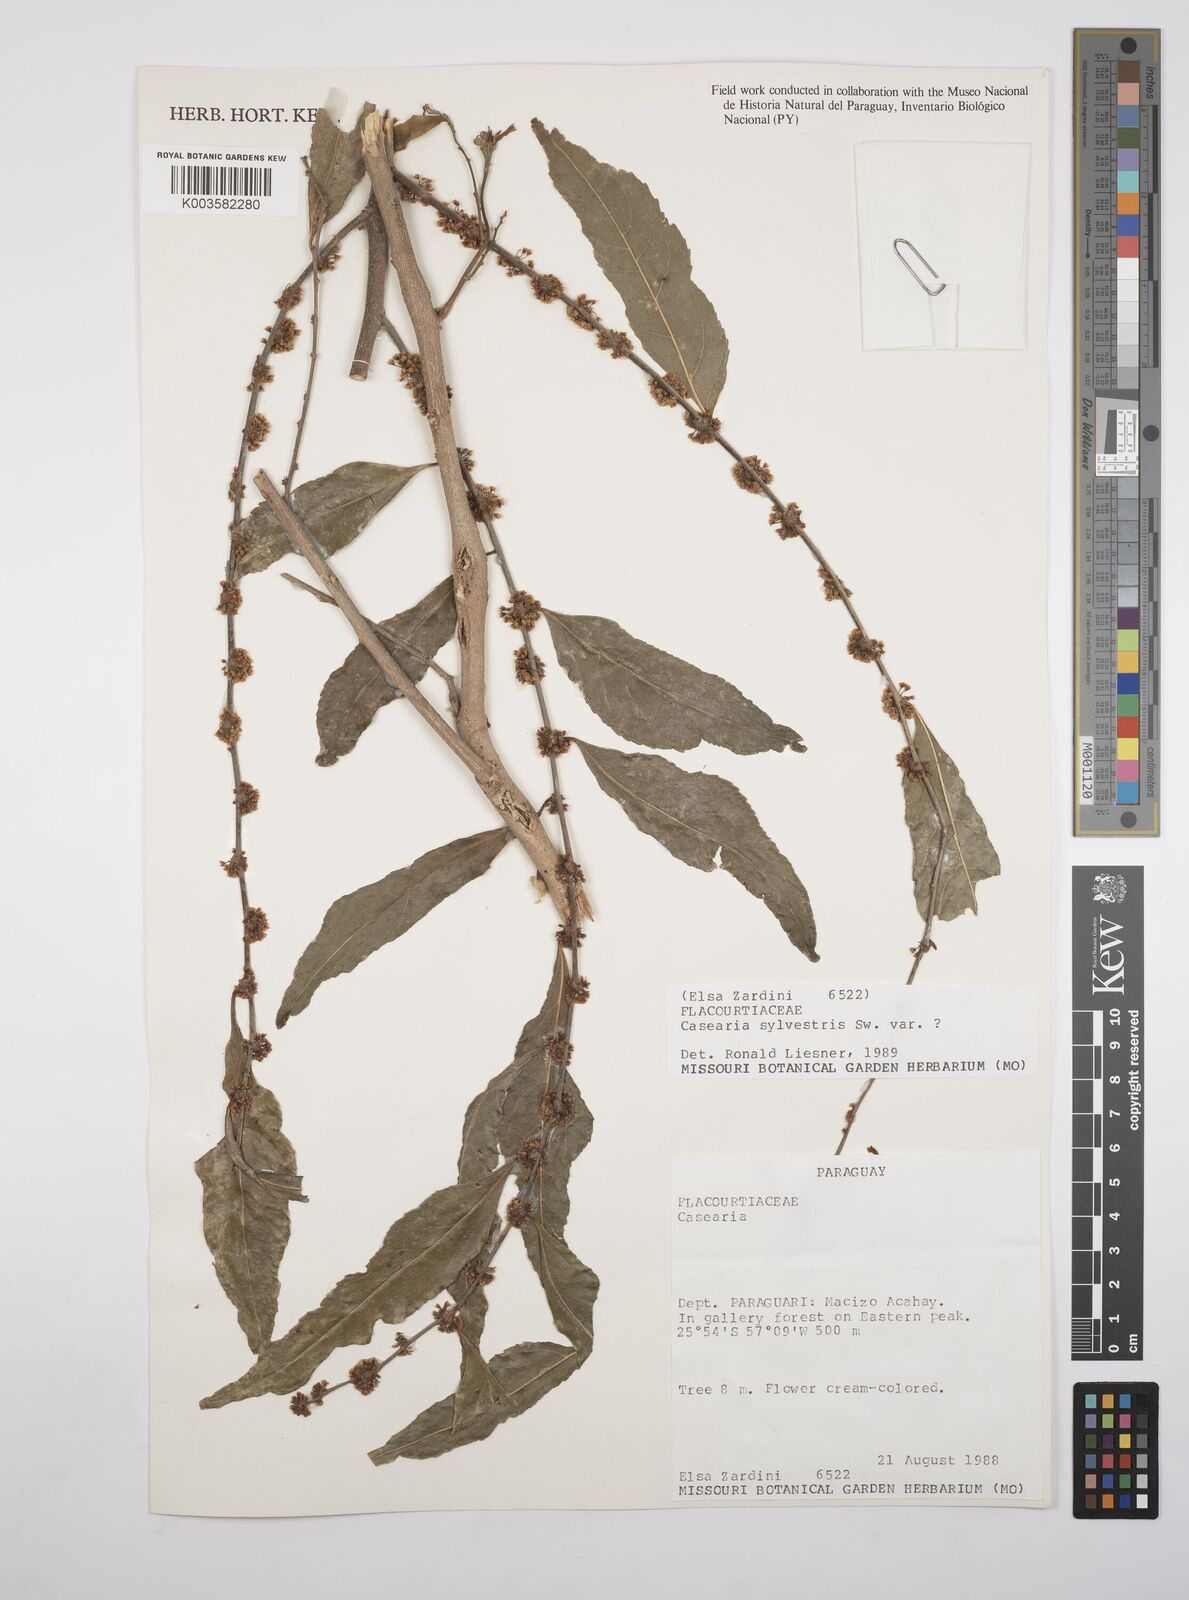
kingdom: Plantae
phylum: Tracheophyta
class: Magnoliopsida
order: Malpighiales
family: Salicaceae
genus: Casearia
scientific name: Casearia sylvestris
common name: Wild sage
